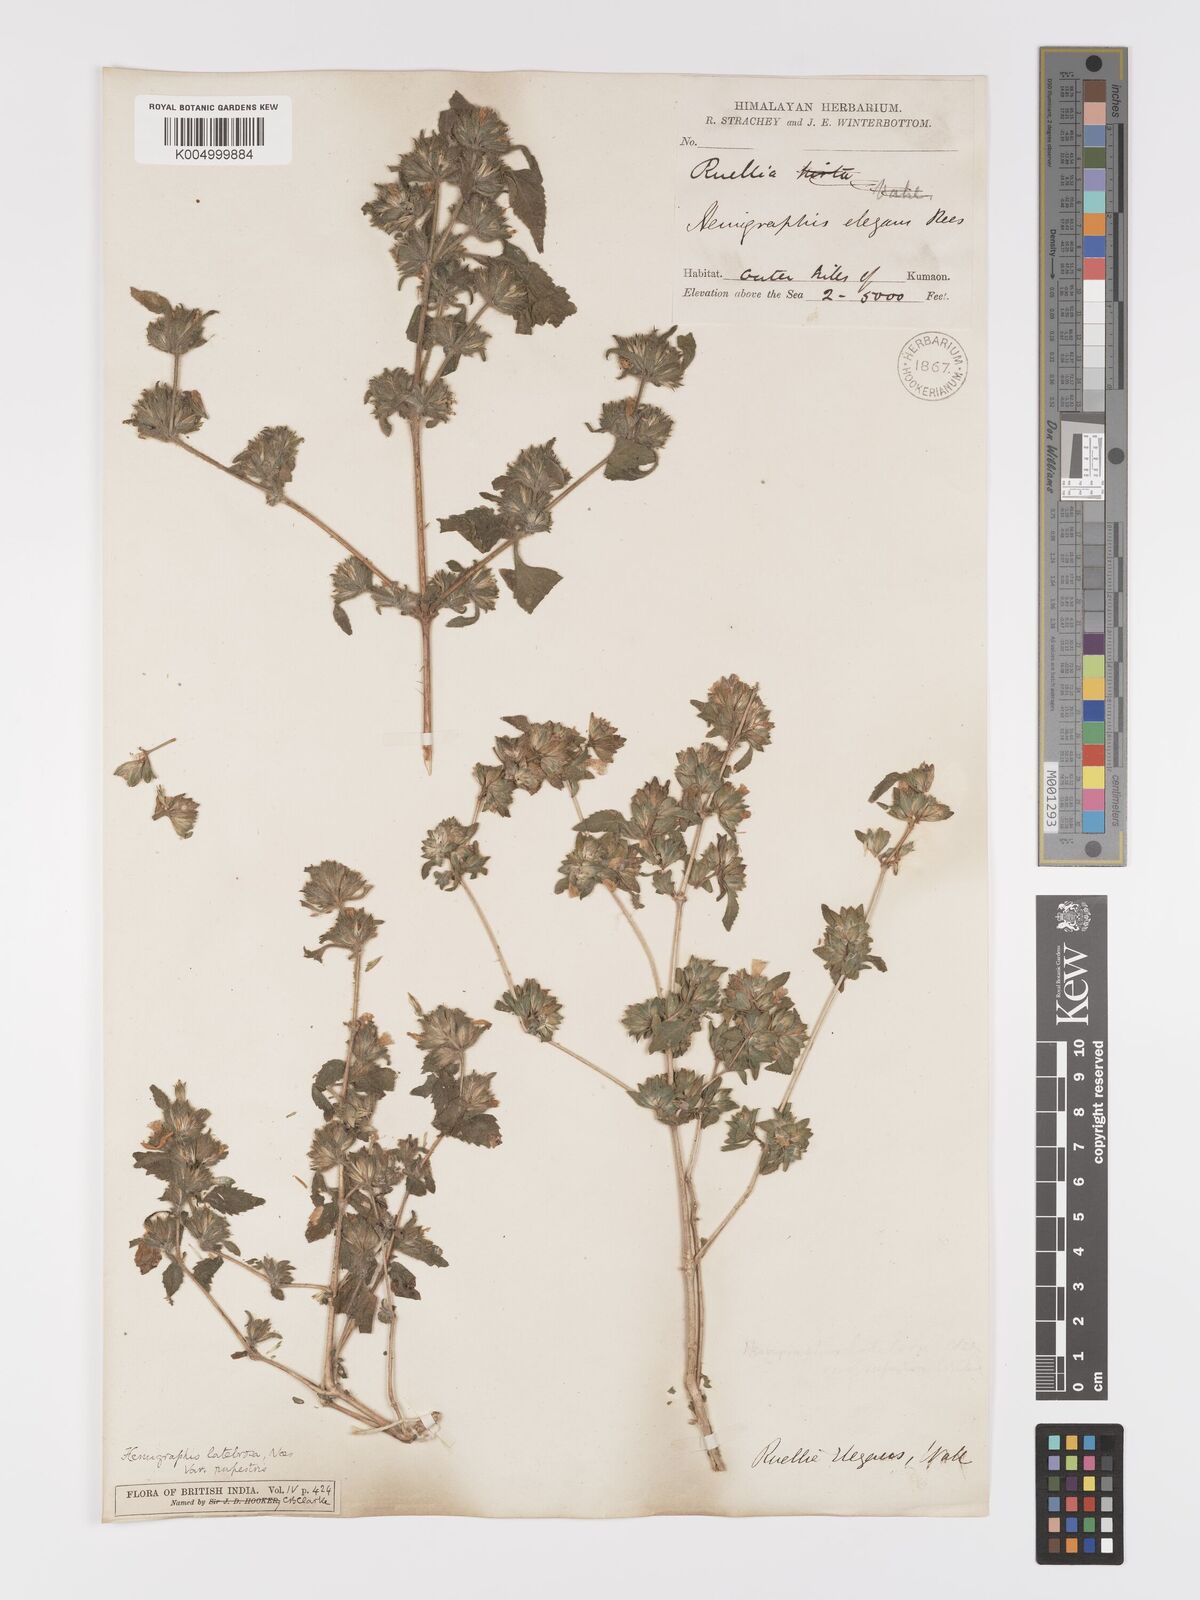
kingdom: Plantae
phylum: Tracheophyta
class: Magnoliopsida
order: Lamiales
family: Acanthaceae
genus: Strobilanthes
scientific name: Strobilanthes pavala
